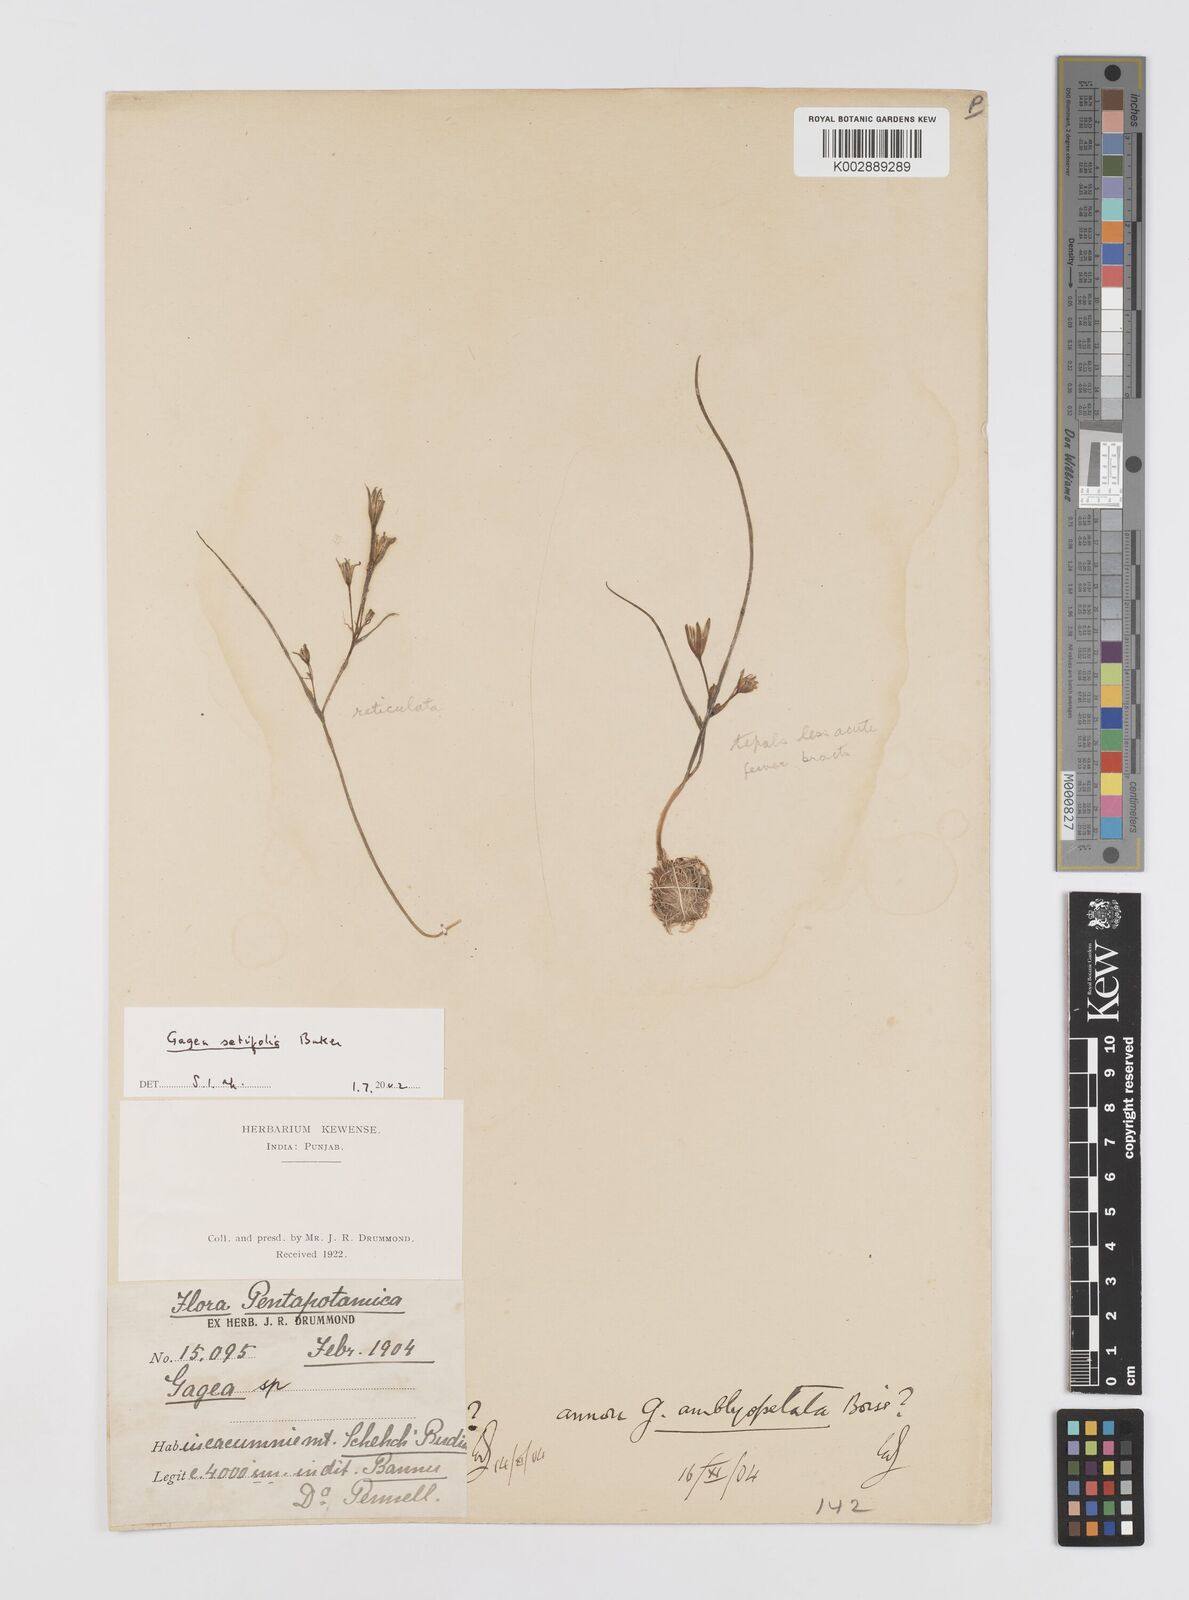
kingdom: Plantae
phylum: Tracheophyta
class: Liliopsida
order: Liliales
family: Liliaceae
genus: Gagea
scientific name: Gagea setifolia
